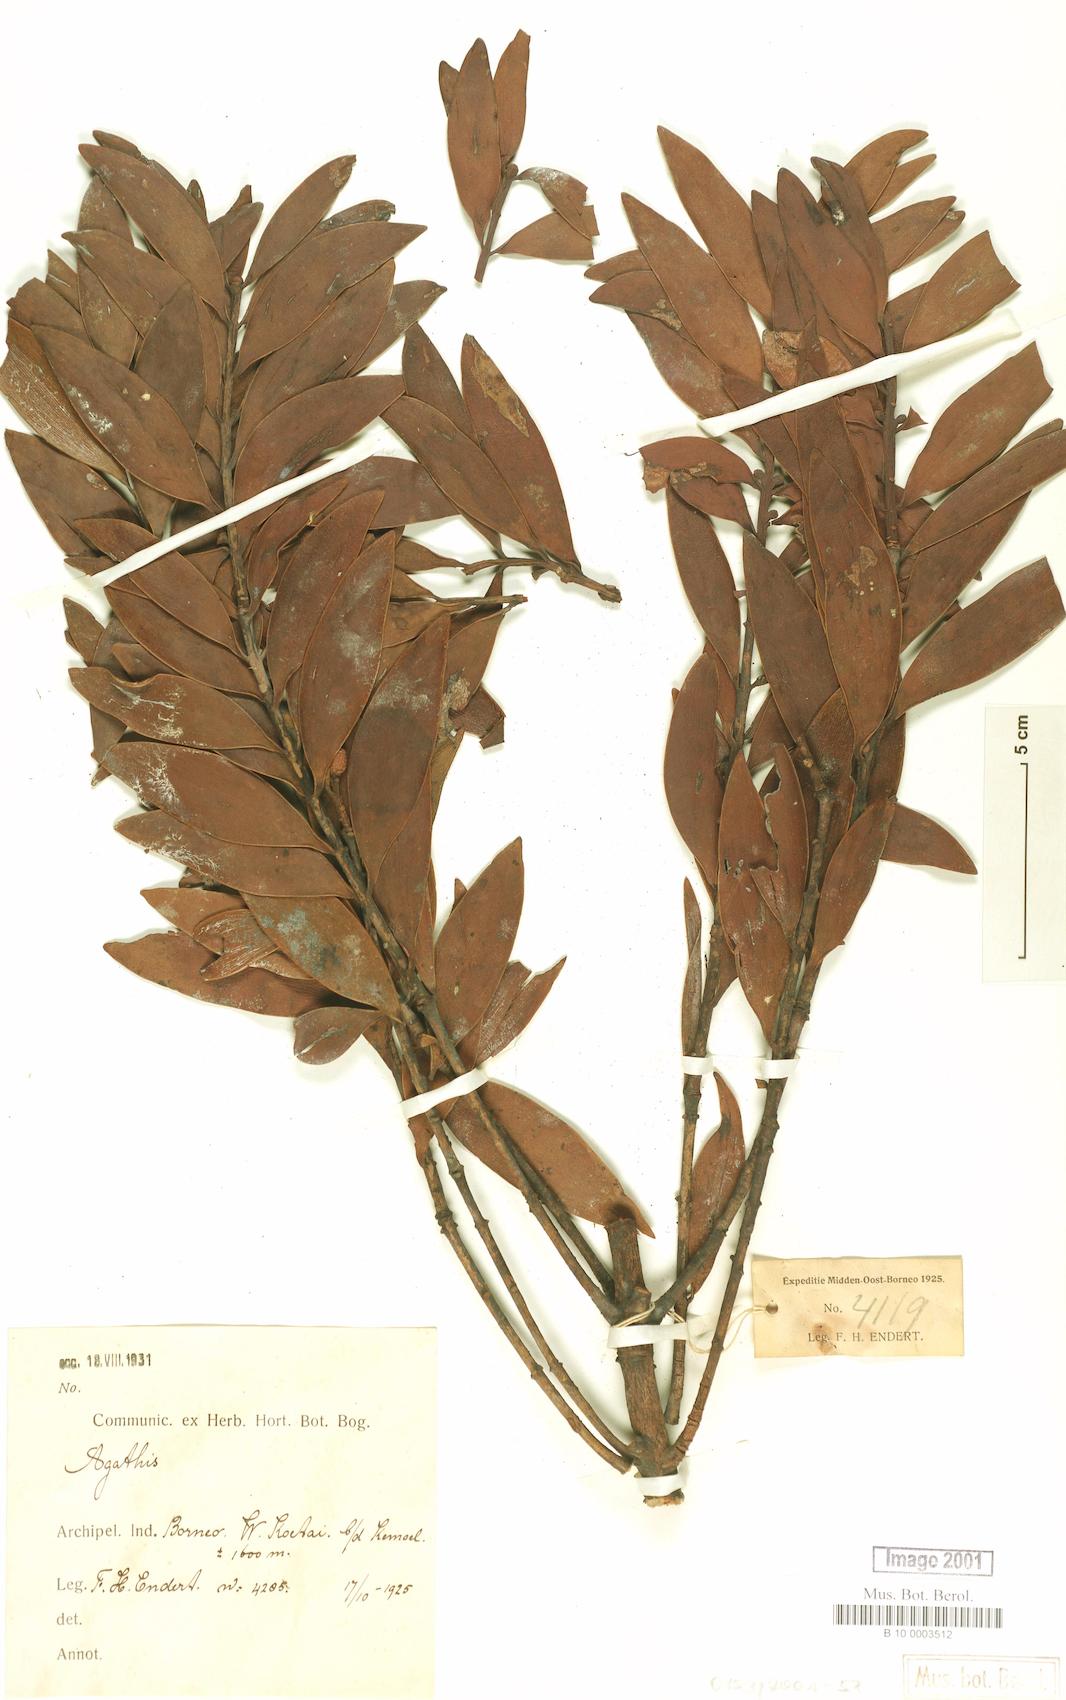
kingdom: Plantae
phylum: Tracheophyta
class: Pinopsida
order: Pinales
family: Araucariaceae
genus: Agathis
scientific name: Agathis
